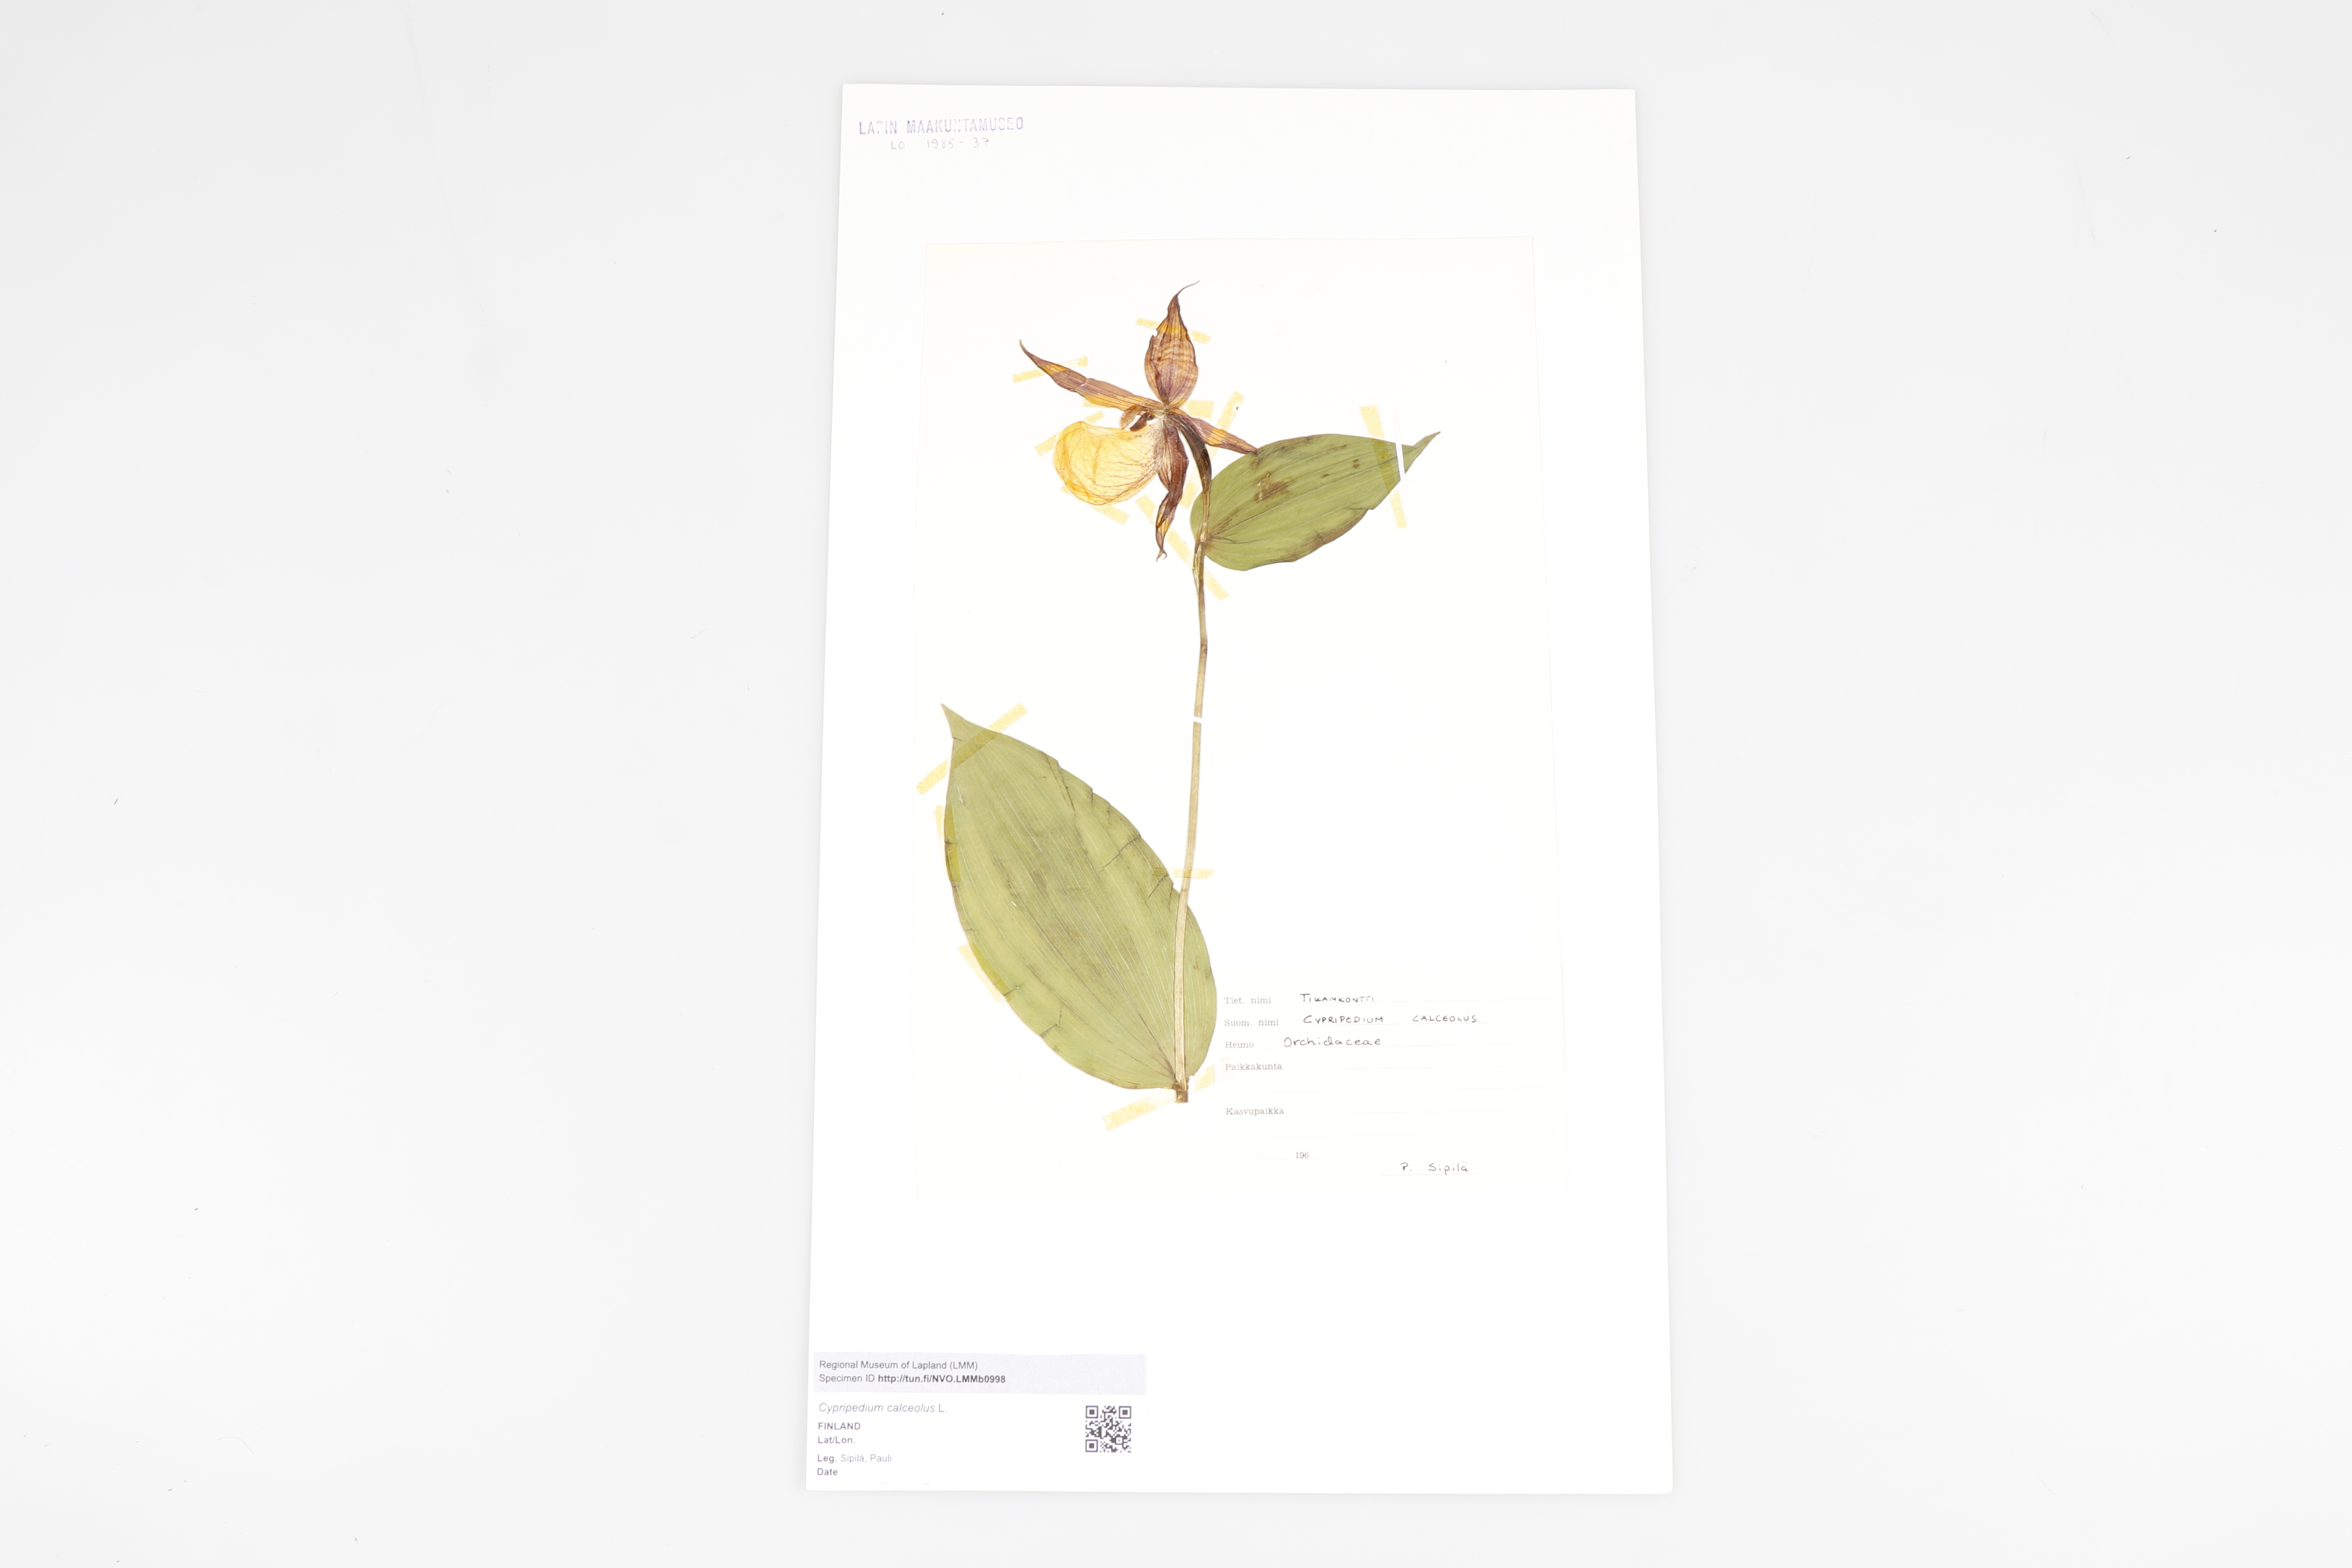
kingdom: Plantae
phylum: Tracheophyta
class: Liliopsida
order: Asparagales
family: Orchidaceae
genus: Cypripedium
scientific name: Cypripedium calceolus
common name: Lady's-slipper
